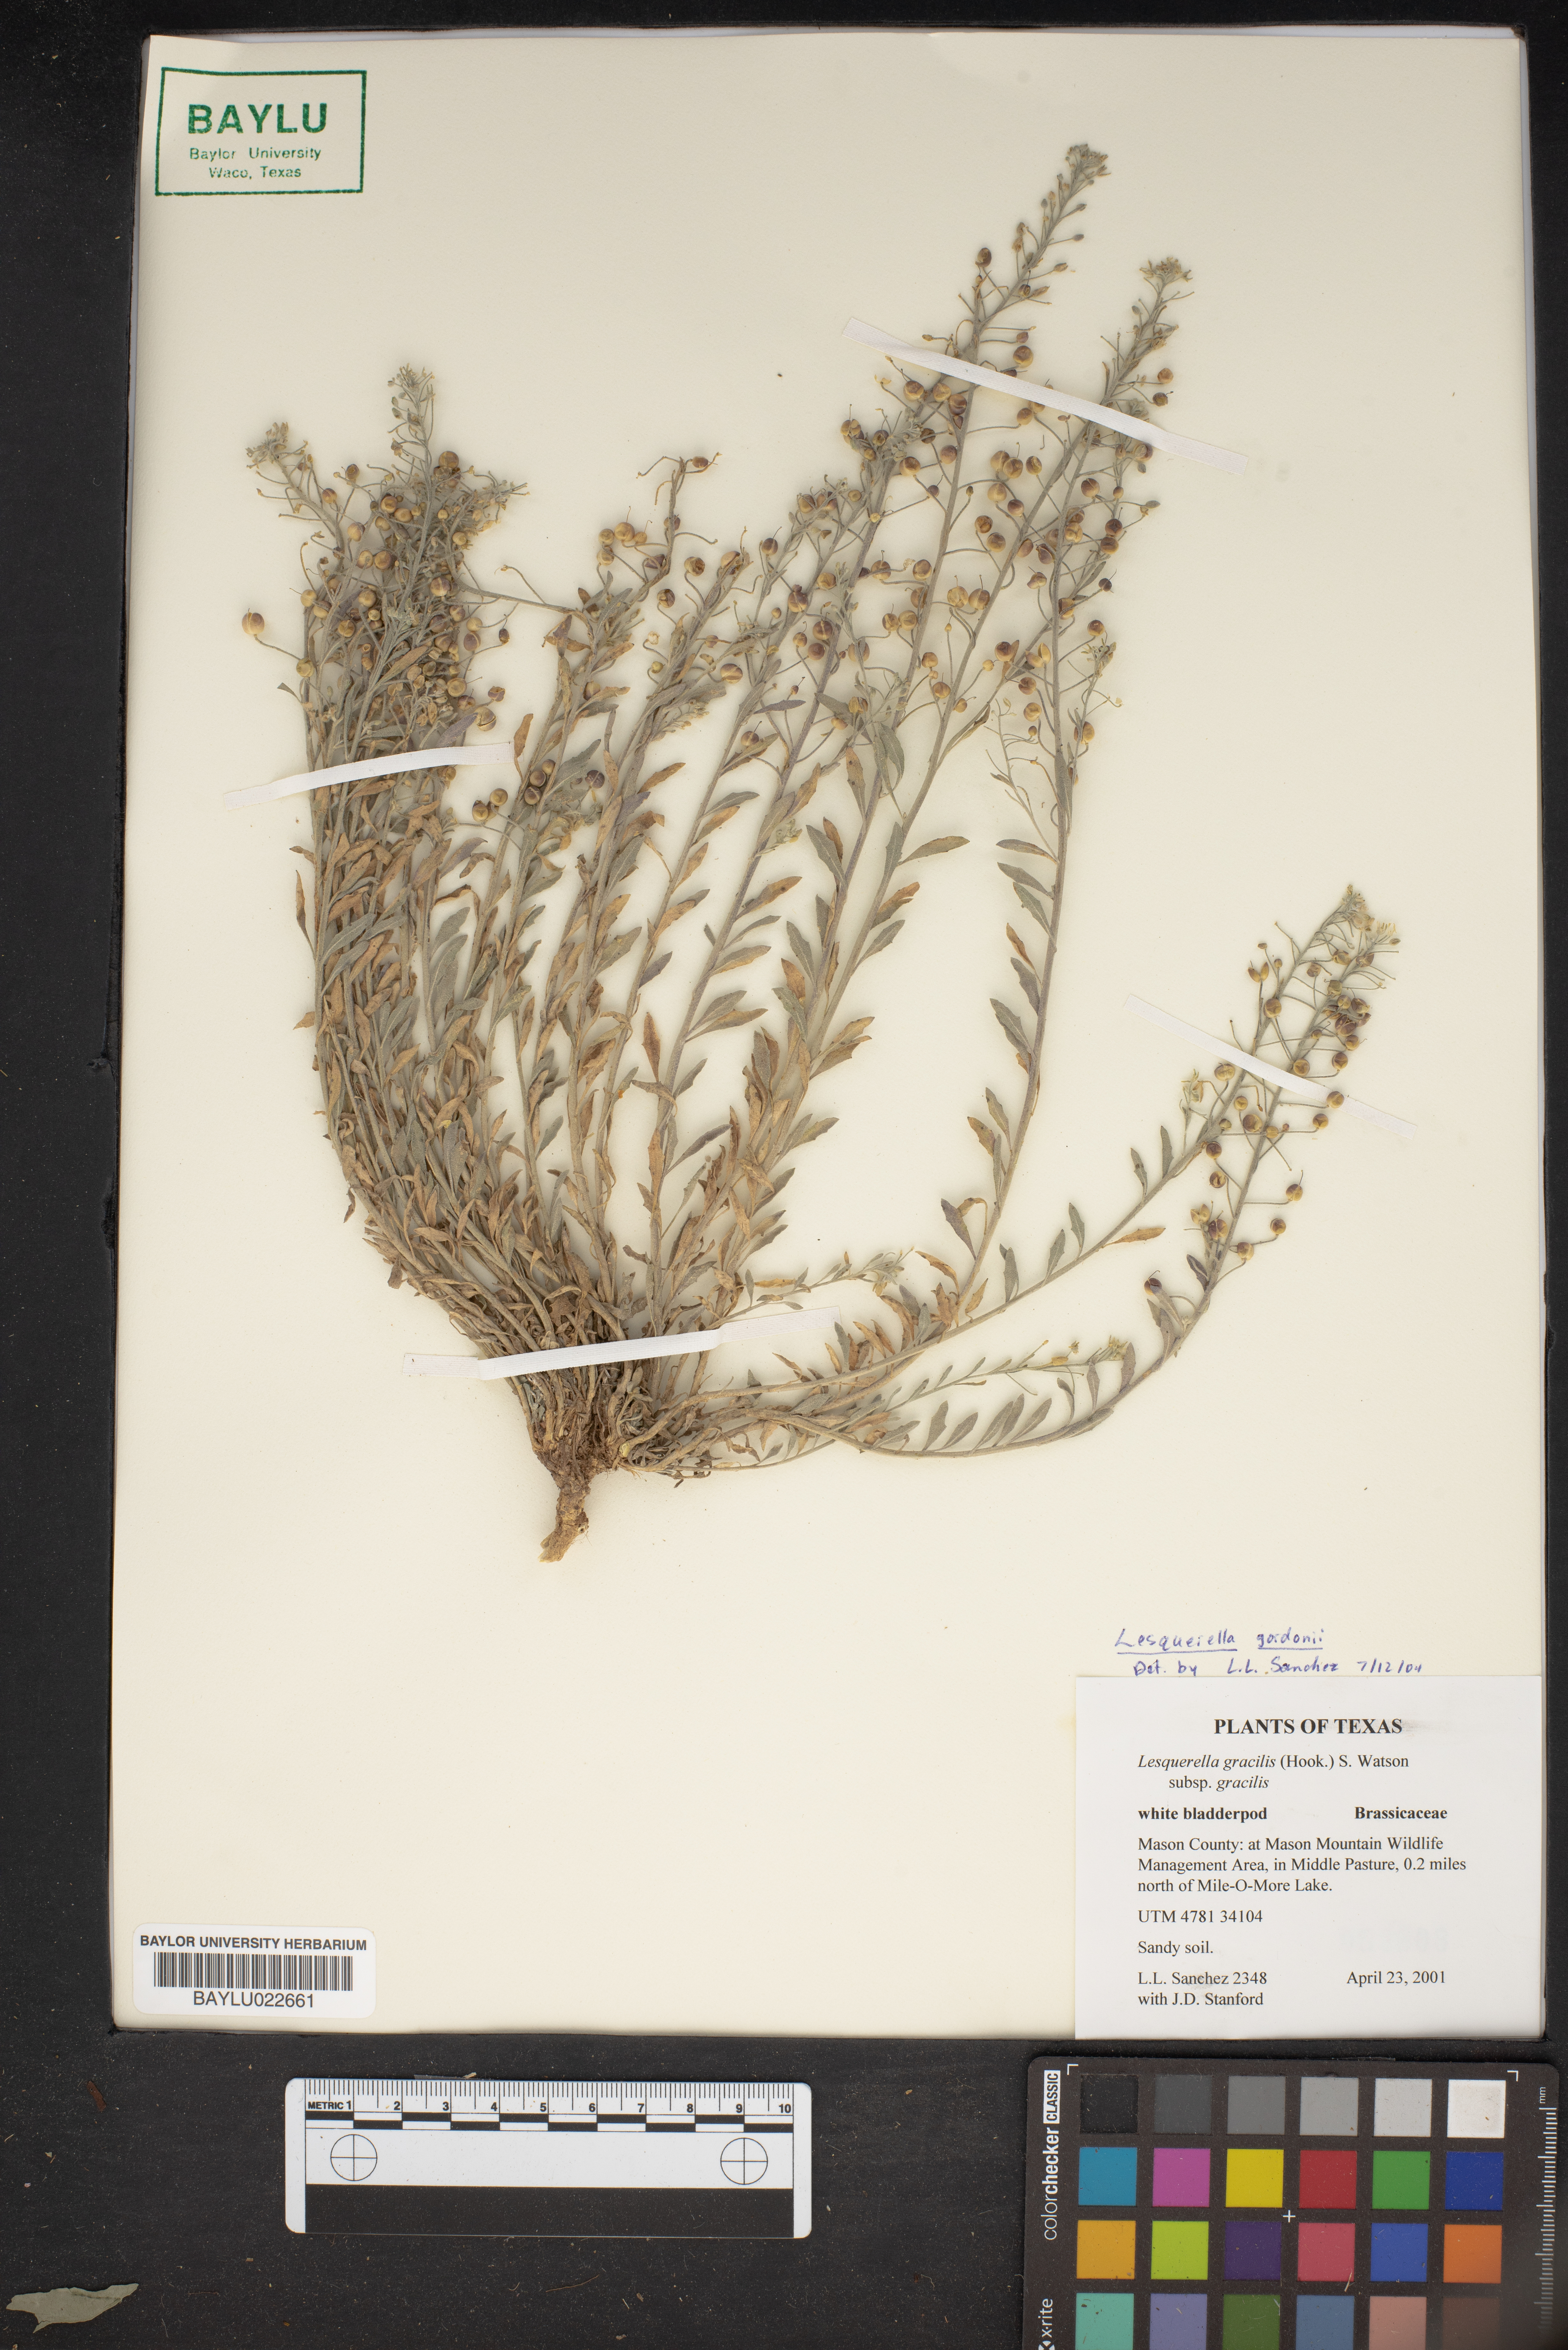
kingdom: Plantae
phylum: Tracheophyta
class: Magnoliopsida
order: Brassicales
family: Brassicaceae
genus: Physaria
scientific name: Physaria gordonii
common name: Gordon's bladderpod
